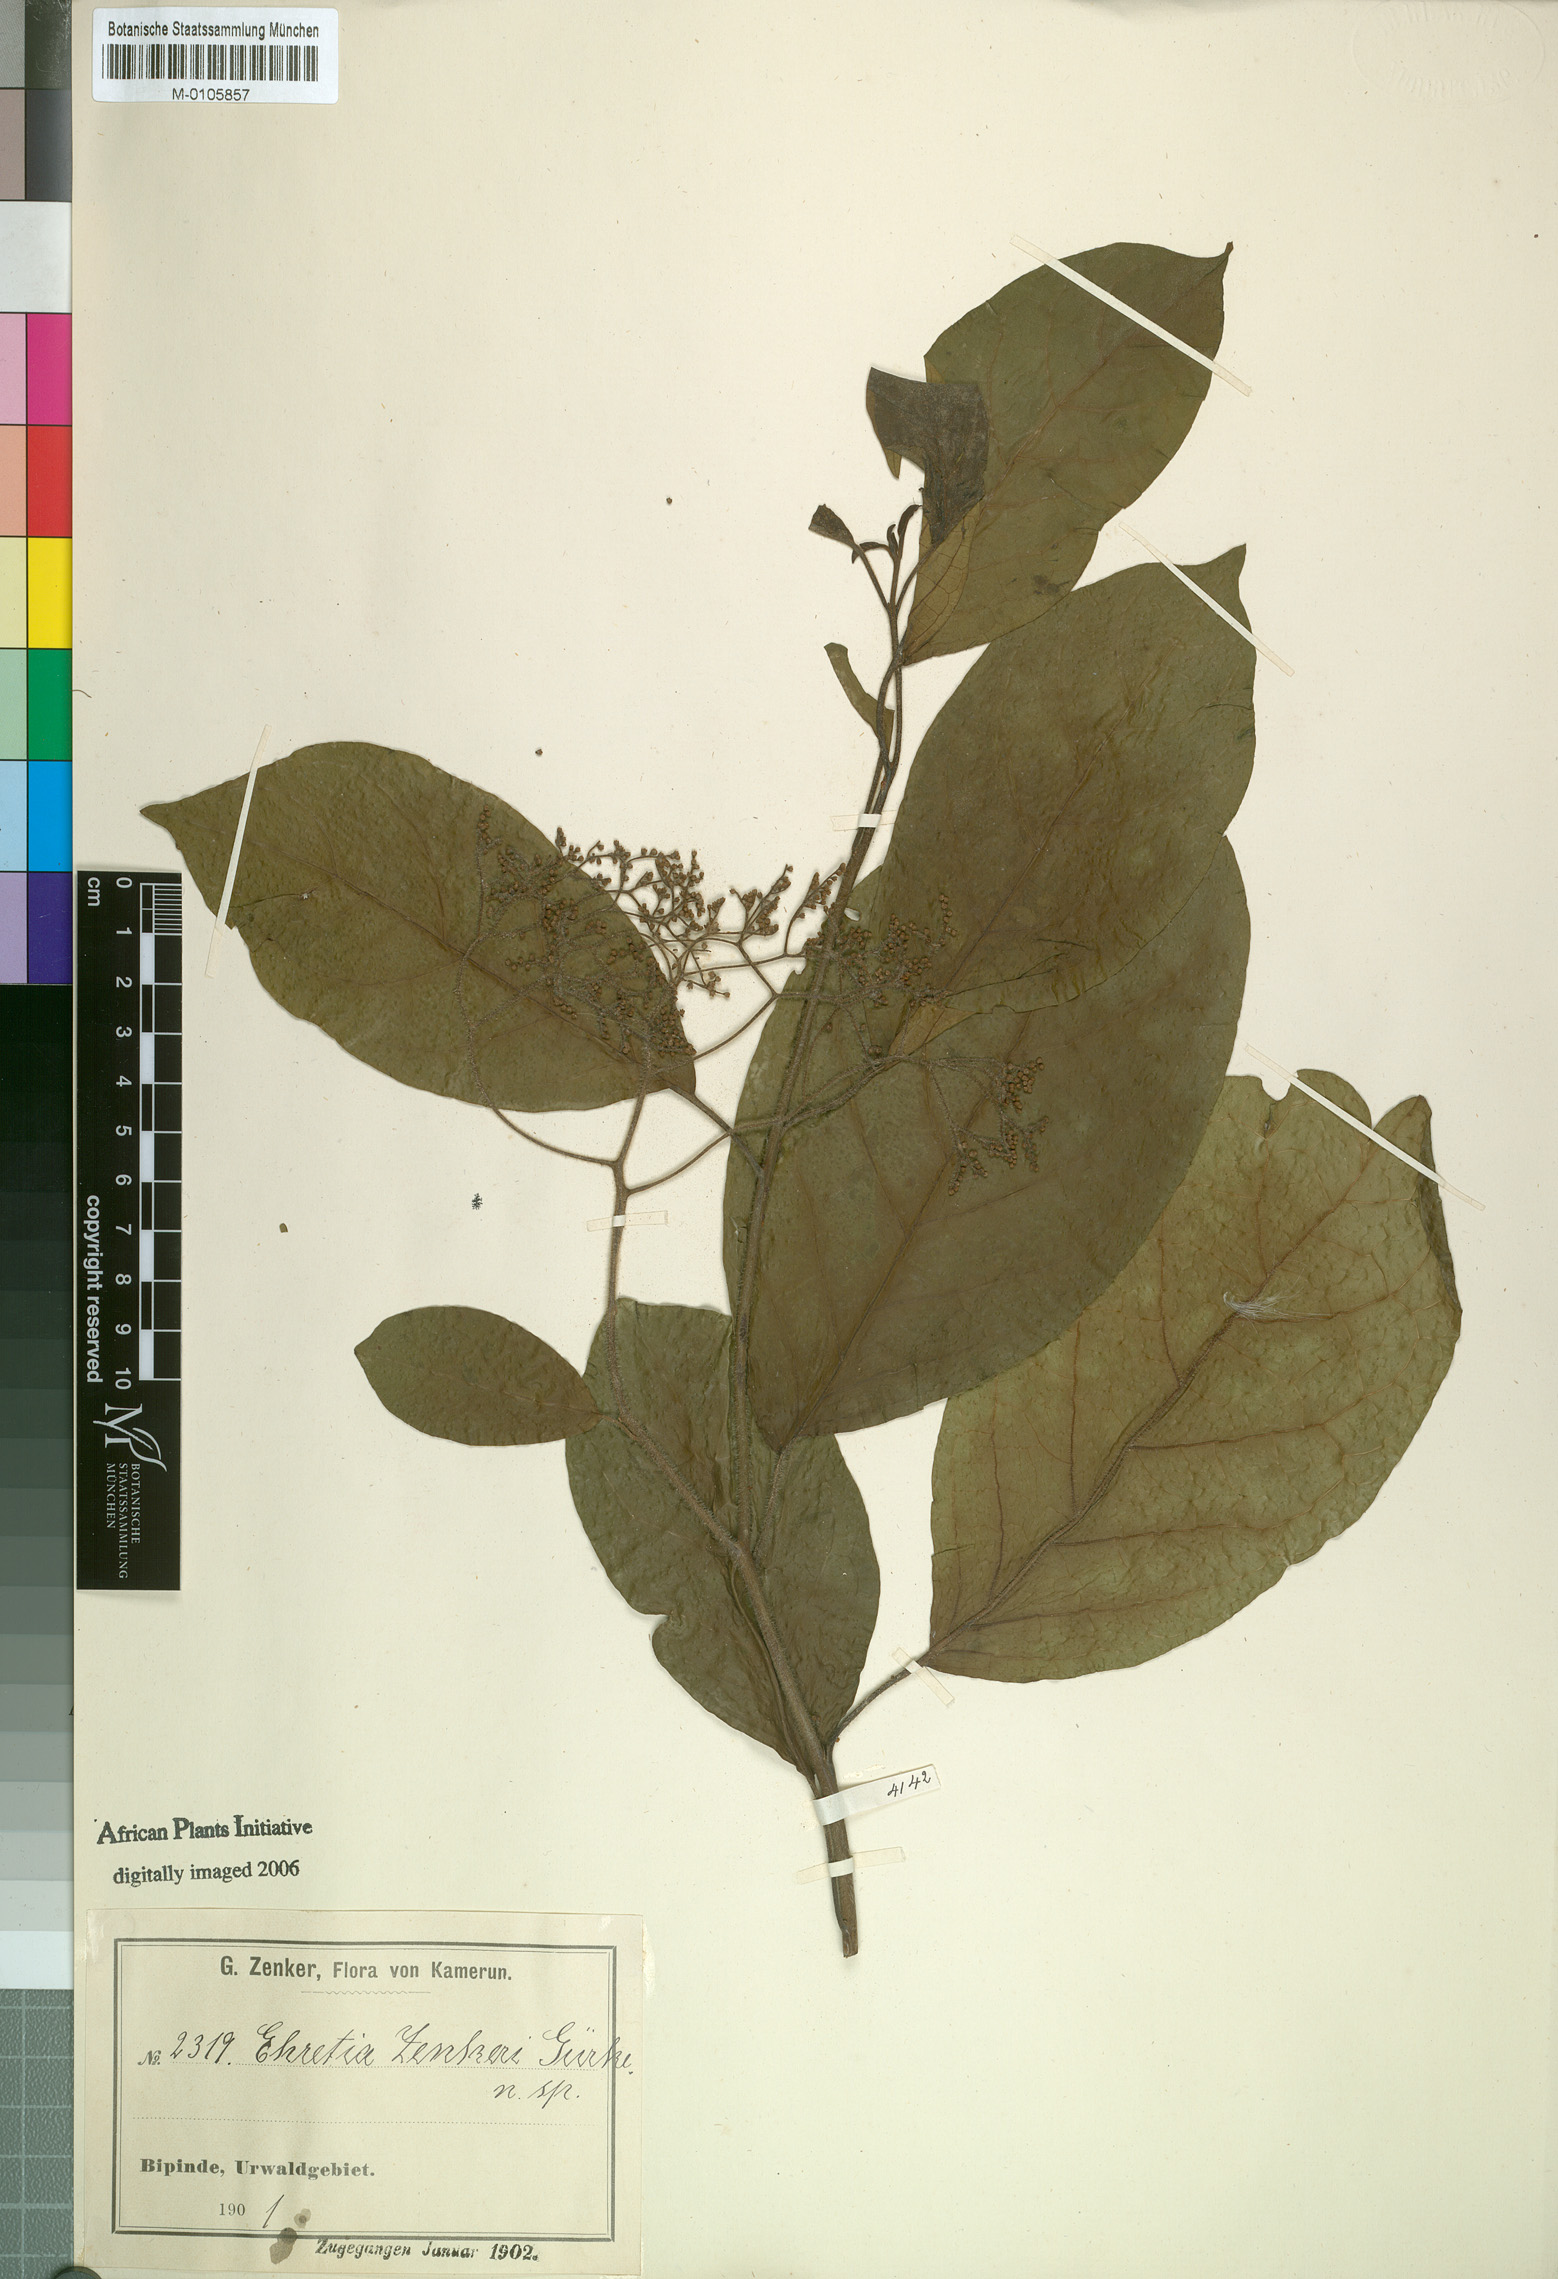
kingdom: Plantae
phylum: Tracheophyta
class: Magnoliopsida
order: Boraginales
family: Ehretiaceae
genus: Ehretia
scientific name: Ehretia cymosa
